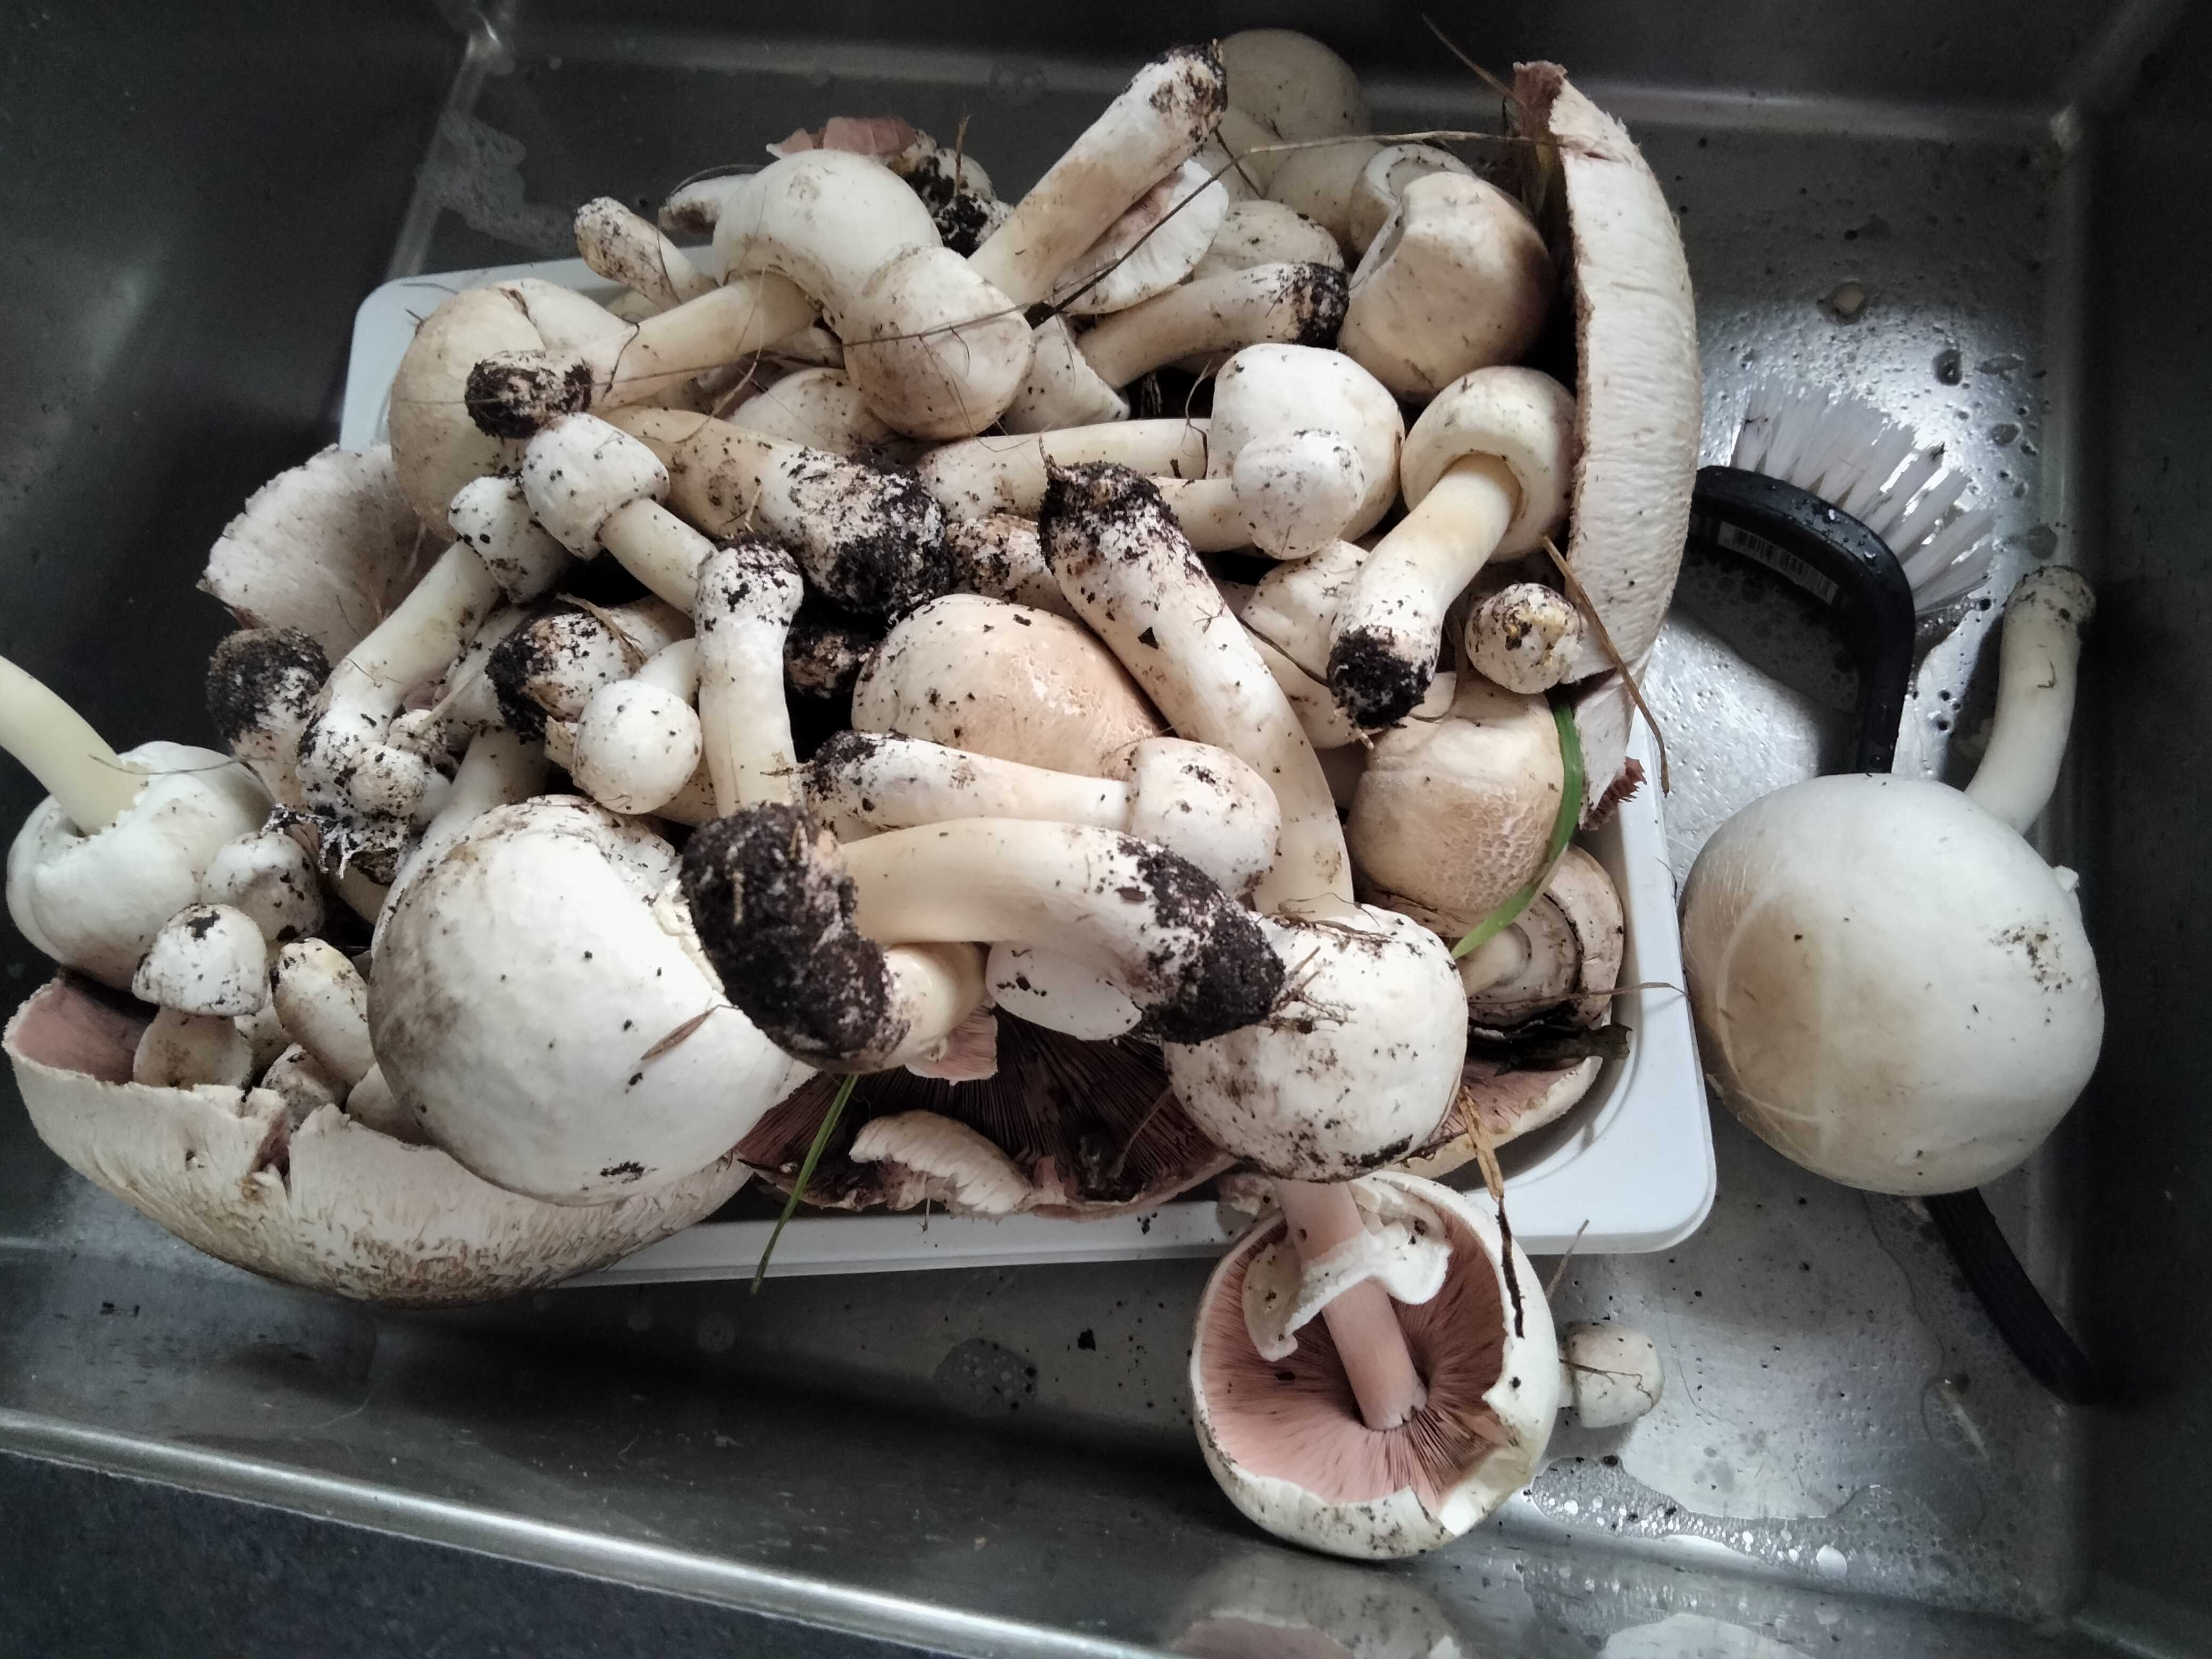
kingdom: Fungi
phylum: Basidiomycota
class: Agaricomycetes
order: Agaricales
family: Agaricaceae
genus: Agaricus
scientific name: Agaricus xanthodermus
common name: karbol-champignon
